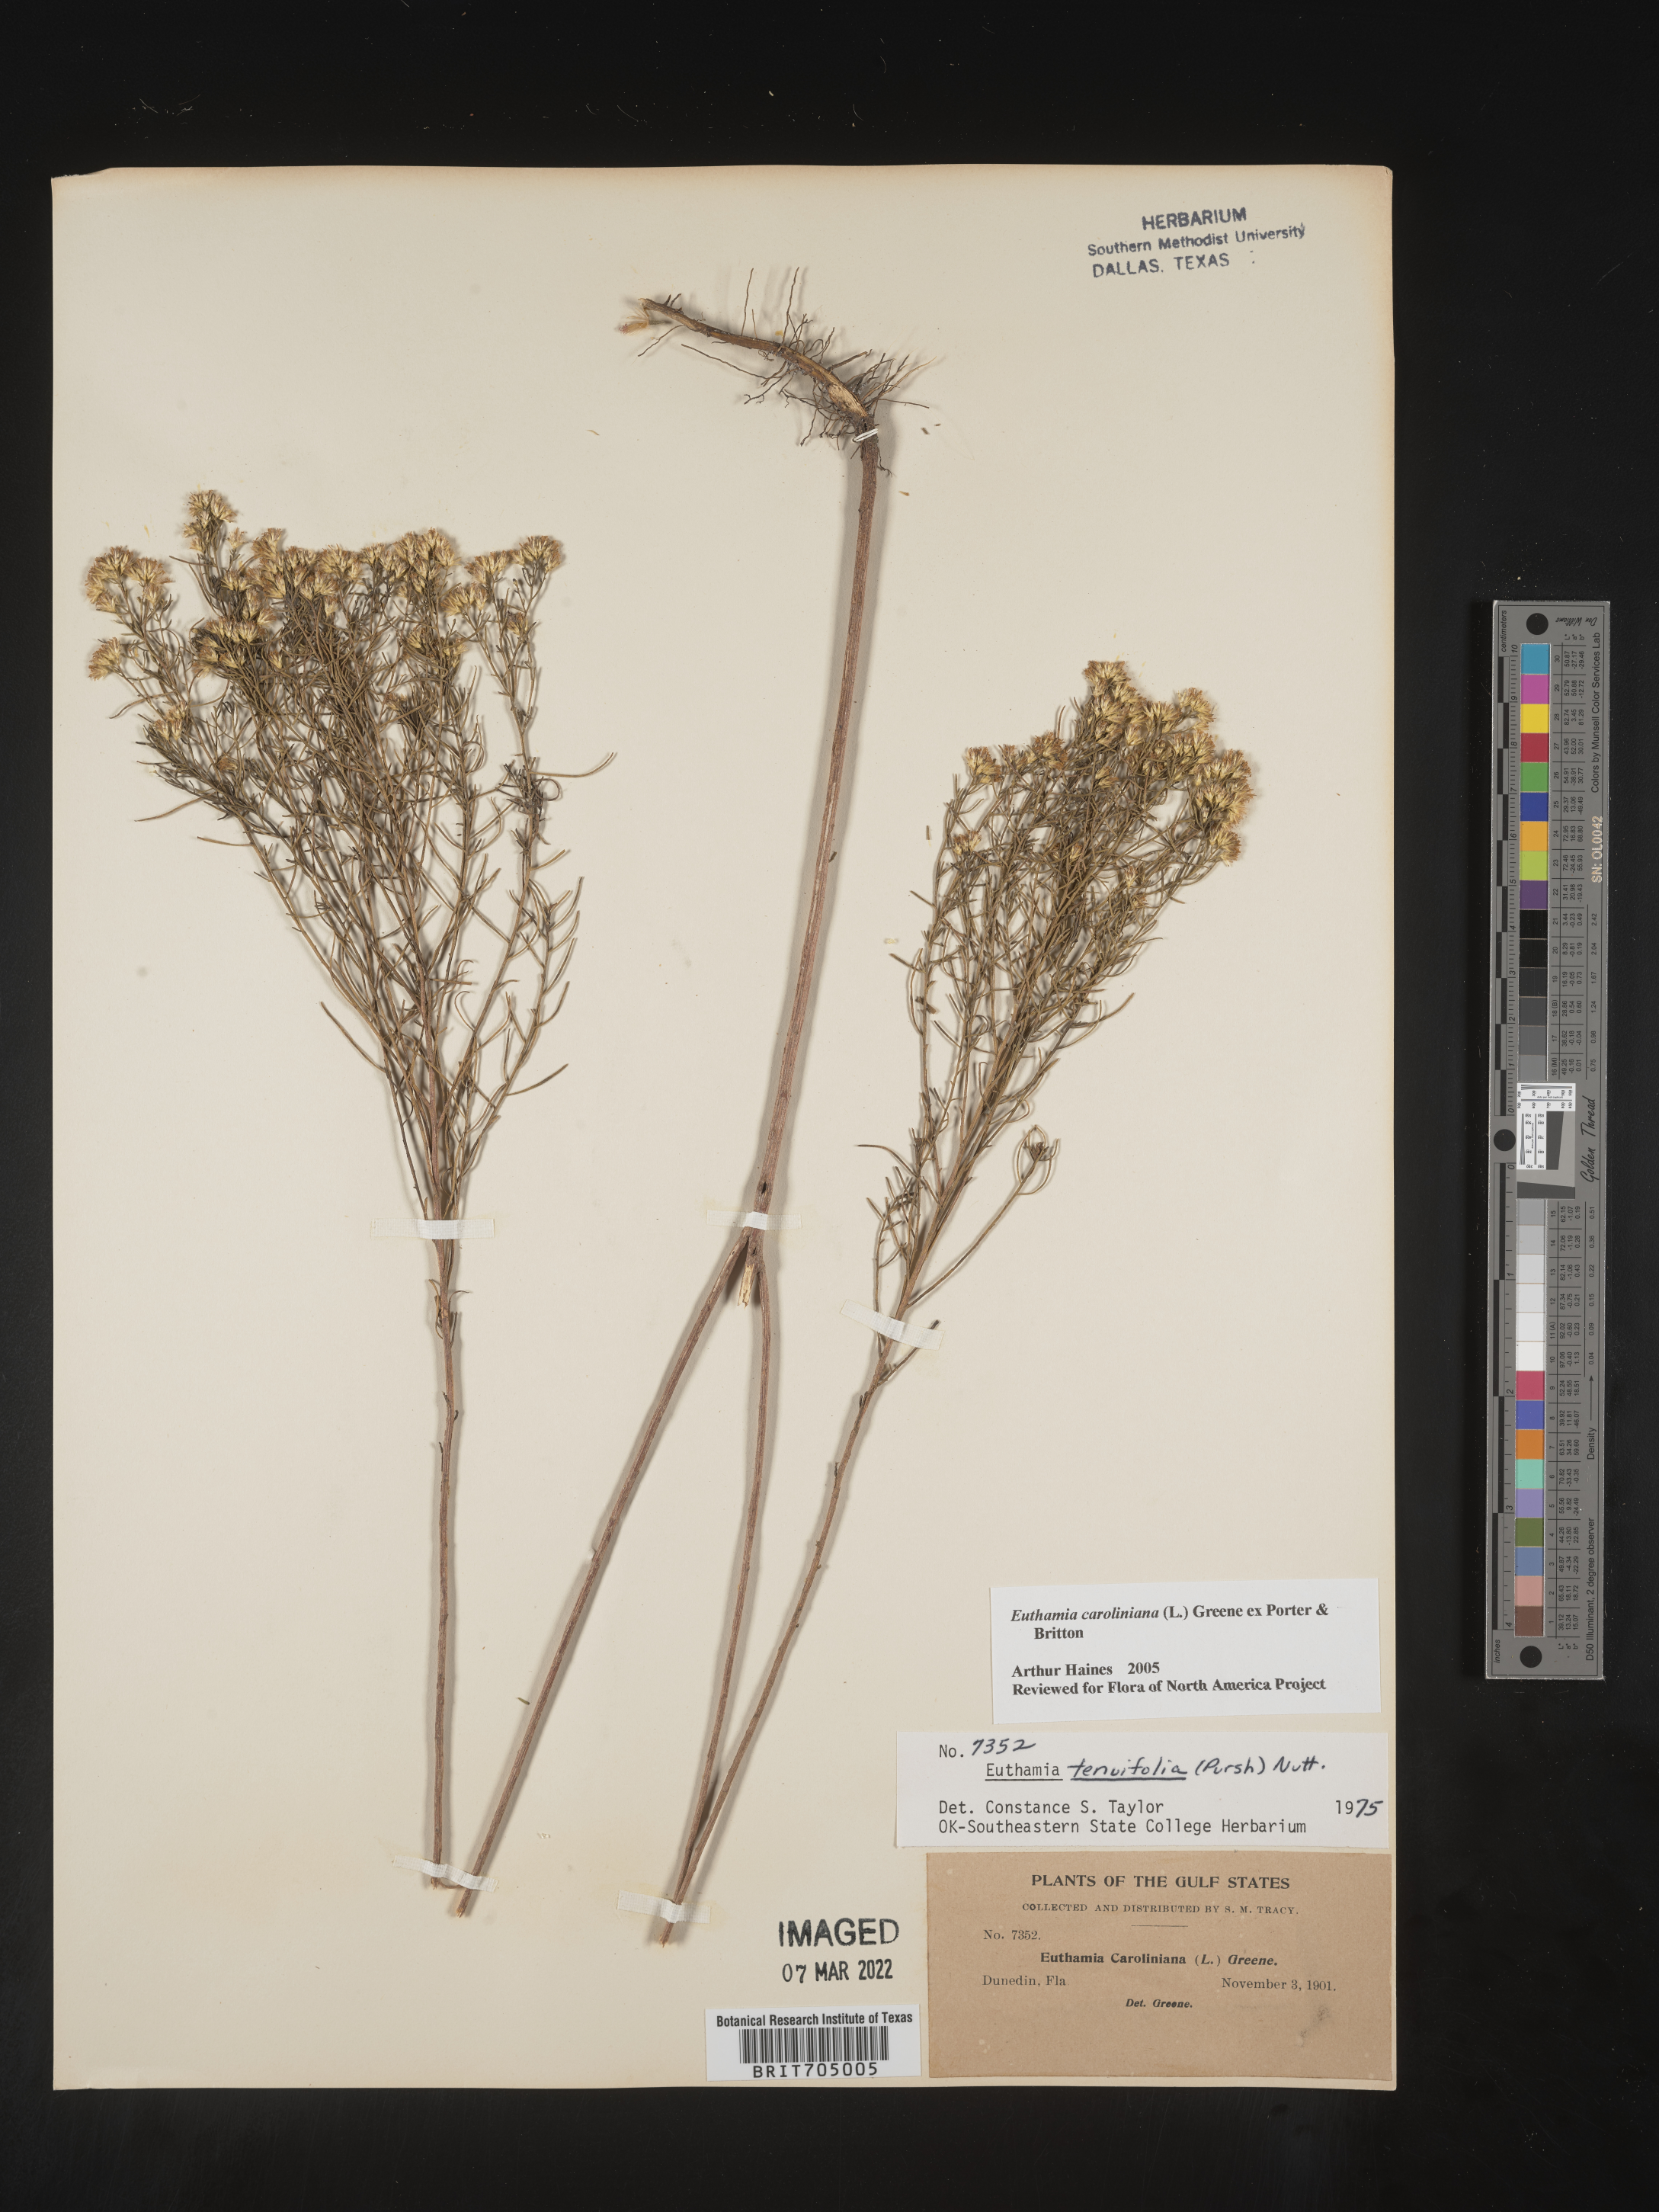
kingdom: Plantae
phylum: Tracheophyta
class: Magnoliopsida
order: Asterales
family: Asteraceae
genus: Euthamia
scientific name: Euthamia caroliniana
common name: Coastal plain goldentop
